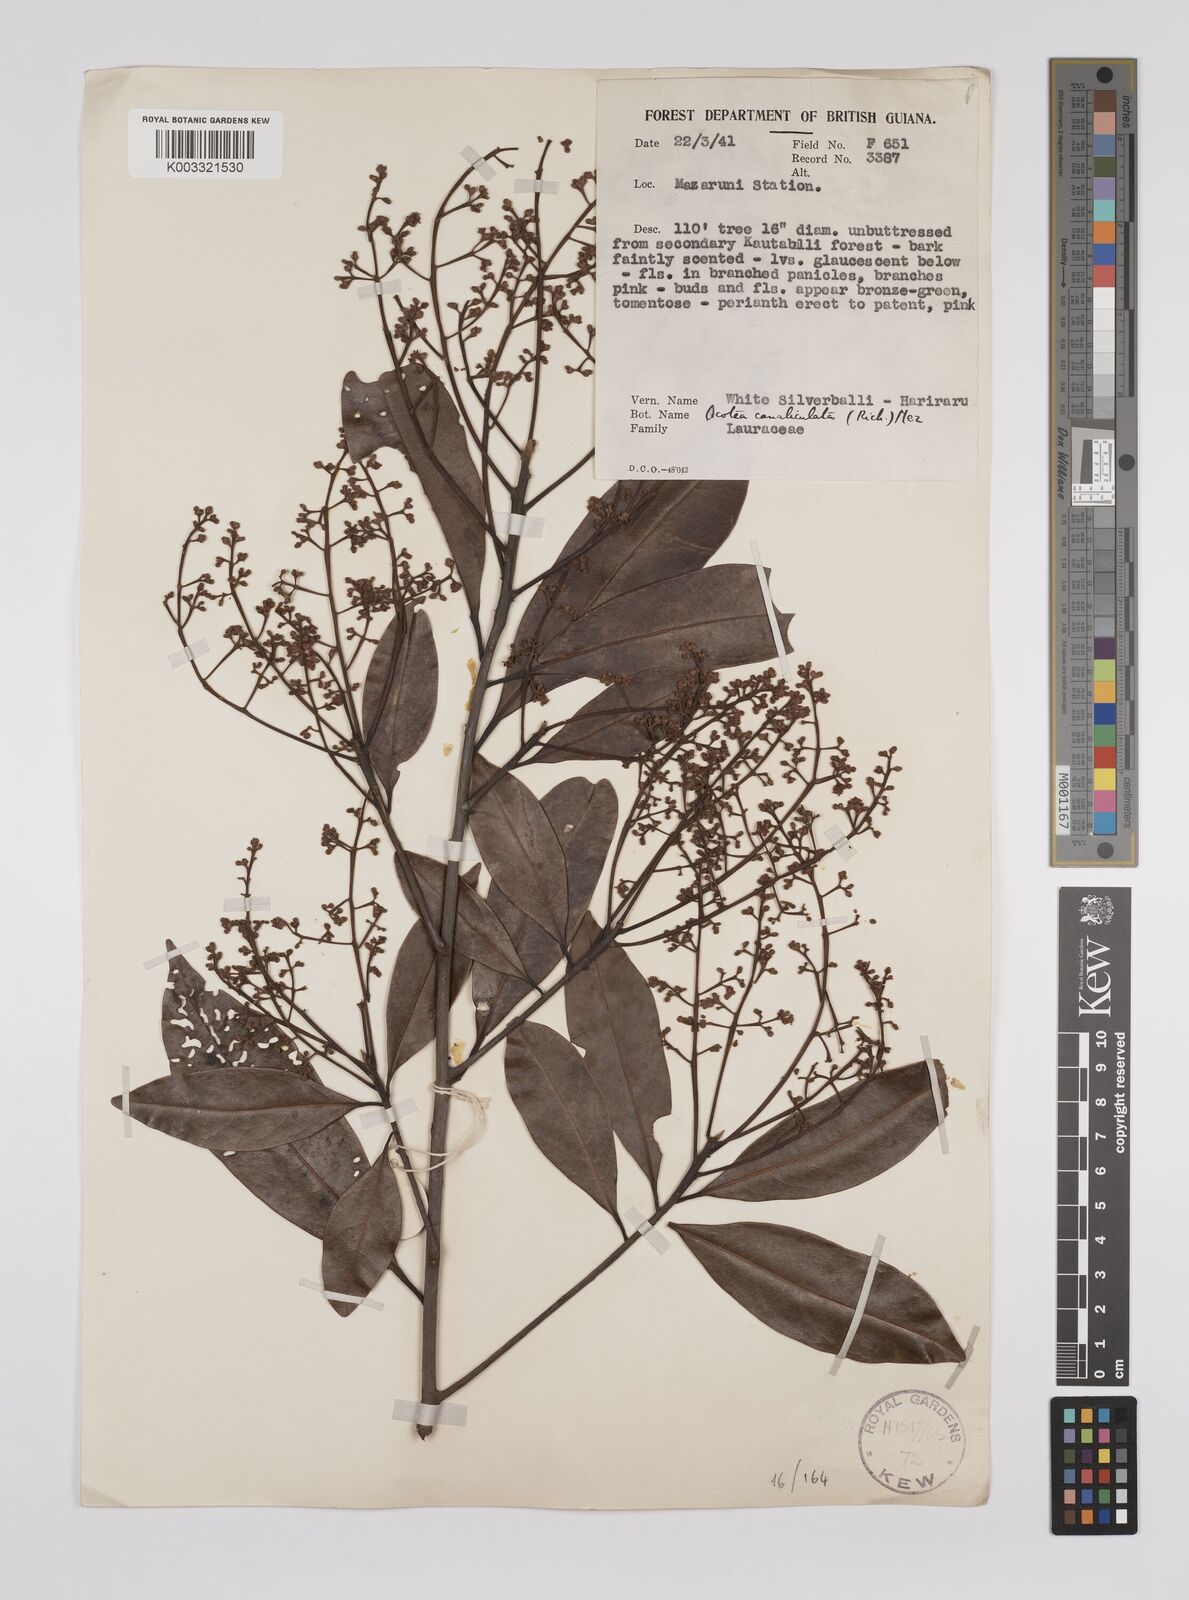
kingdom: Plantae
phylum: Tracheophyta
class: Magnoliopsida
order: Laurales
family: Lauraceae
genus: Ocotea
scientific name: Ocotea canaliculata
